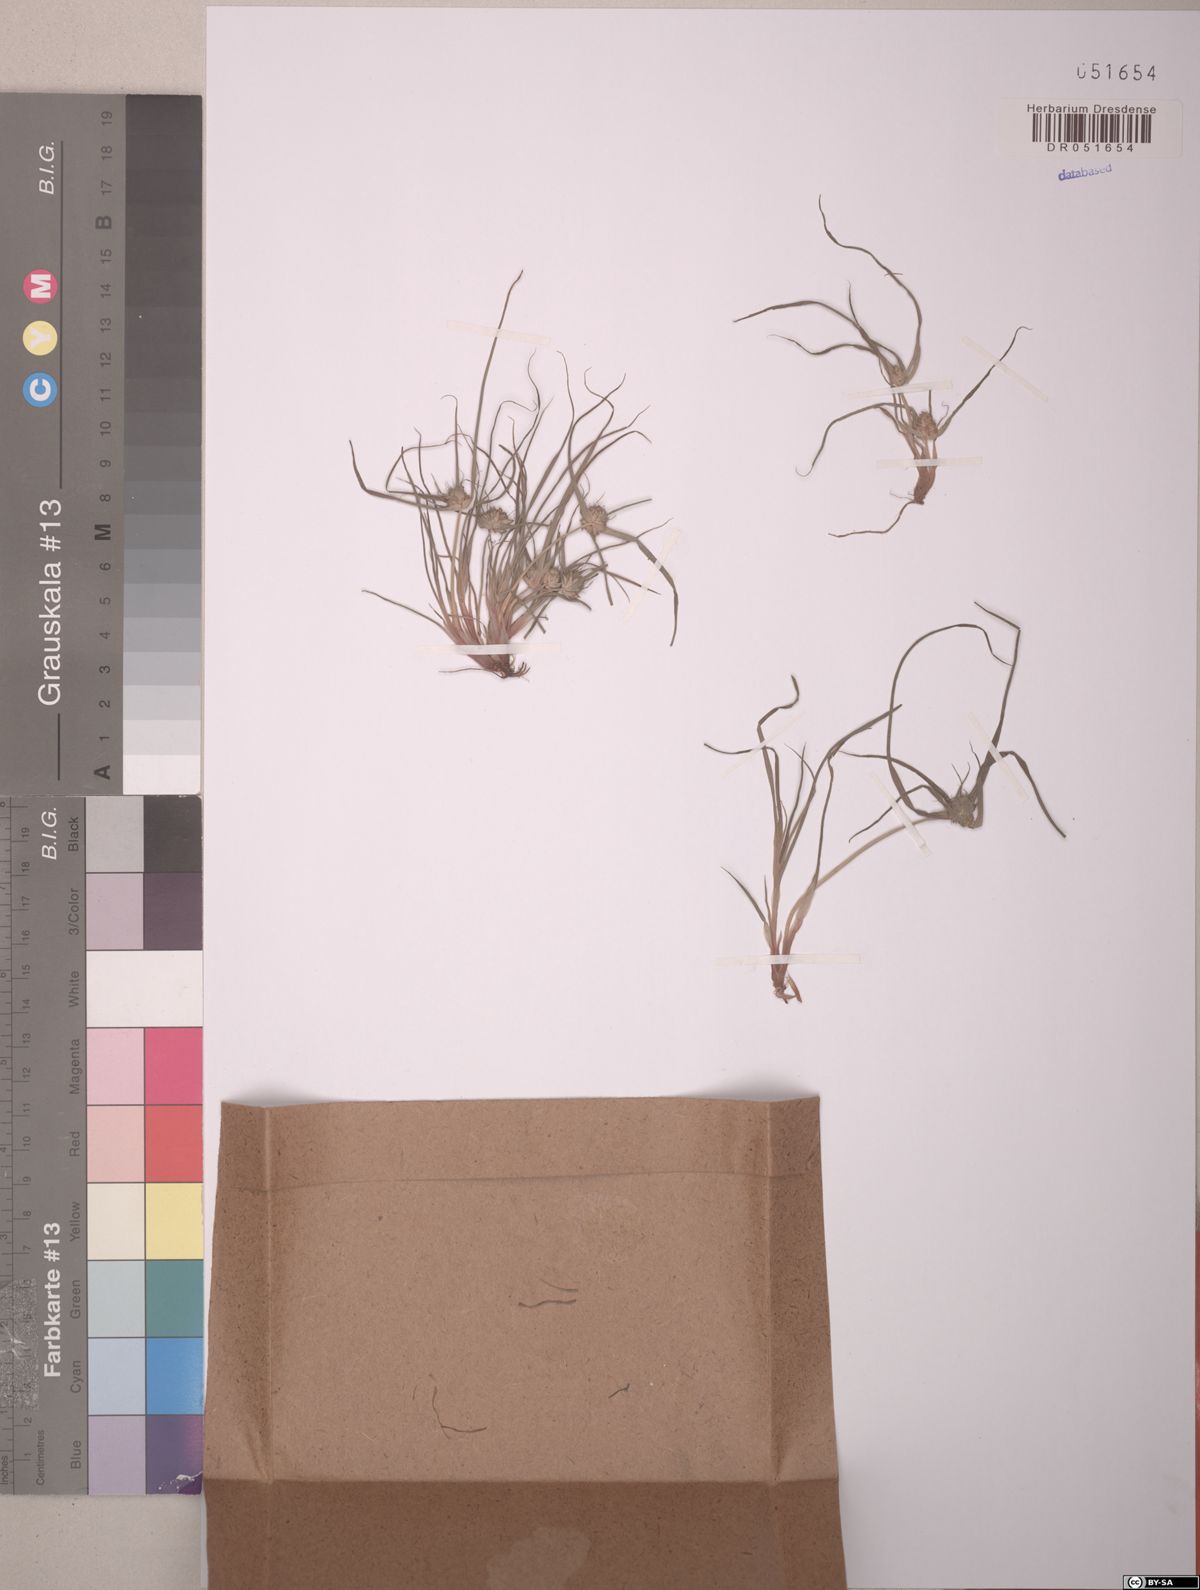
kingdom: Plantae
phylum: Tracheophyta
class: Liliopsida
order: Poales
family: Cyperaceae
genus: Cyperus
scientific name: Cyperus michelianus
